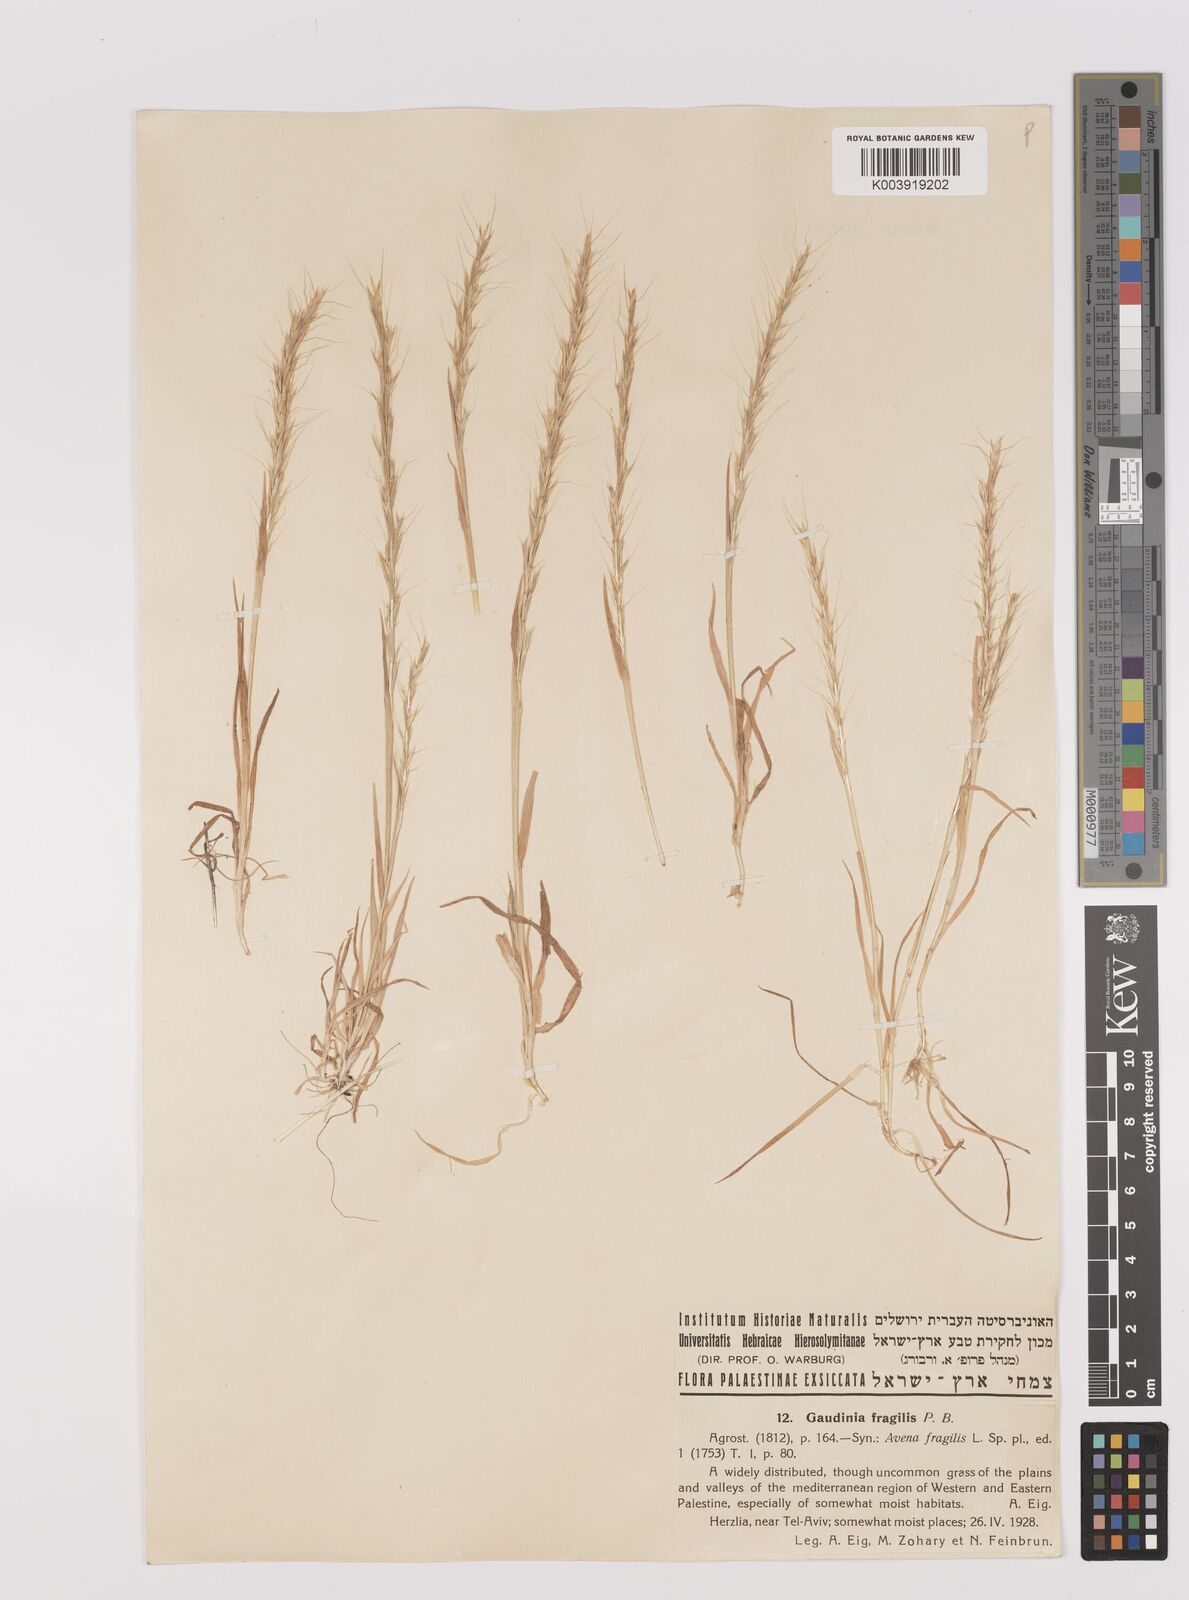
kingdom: Plantae
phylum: Tracheophyta
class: Liliopsida
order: Poales
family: Poaceae
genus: Gaudinia
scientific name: Gaudinia fragilis
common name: French oat-grass
